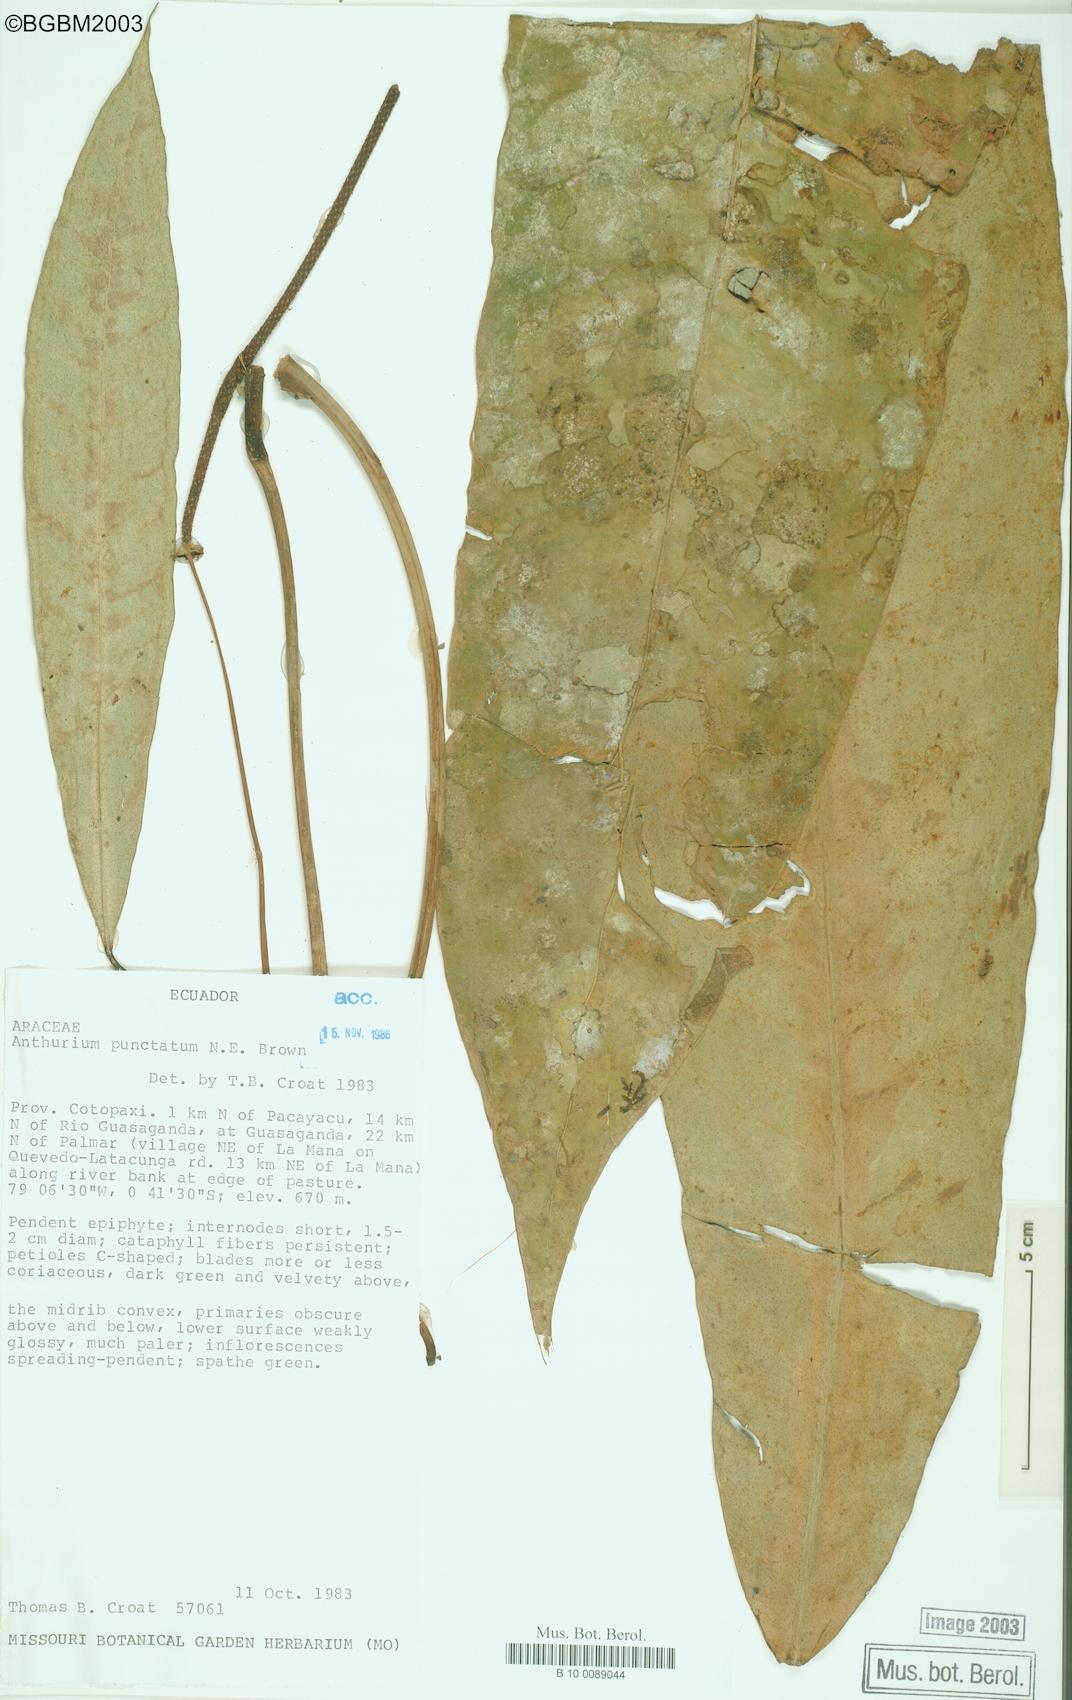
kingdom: Plantae
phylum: Tracheophyta
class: Liliopsida
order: Alismatales
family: Araceae
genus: Anthurium
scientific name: Anthurium punctatum
